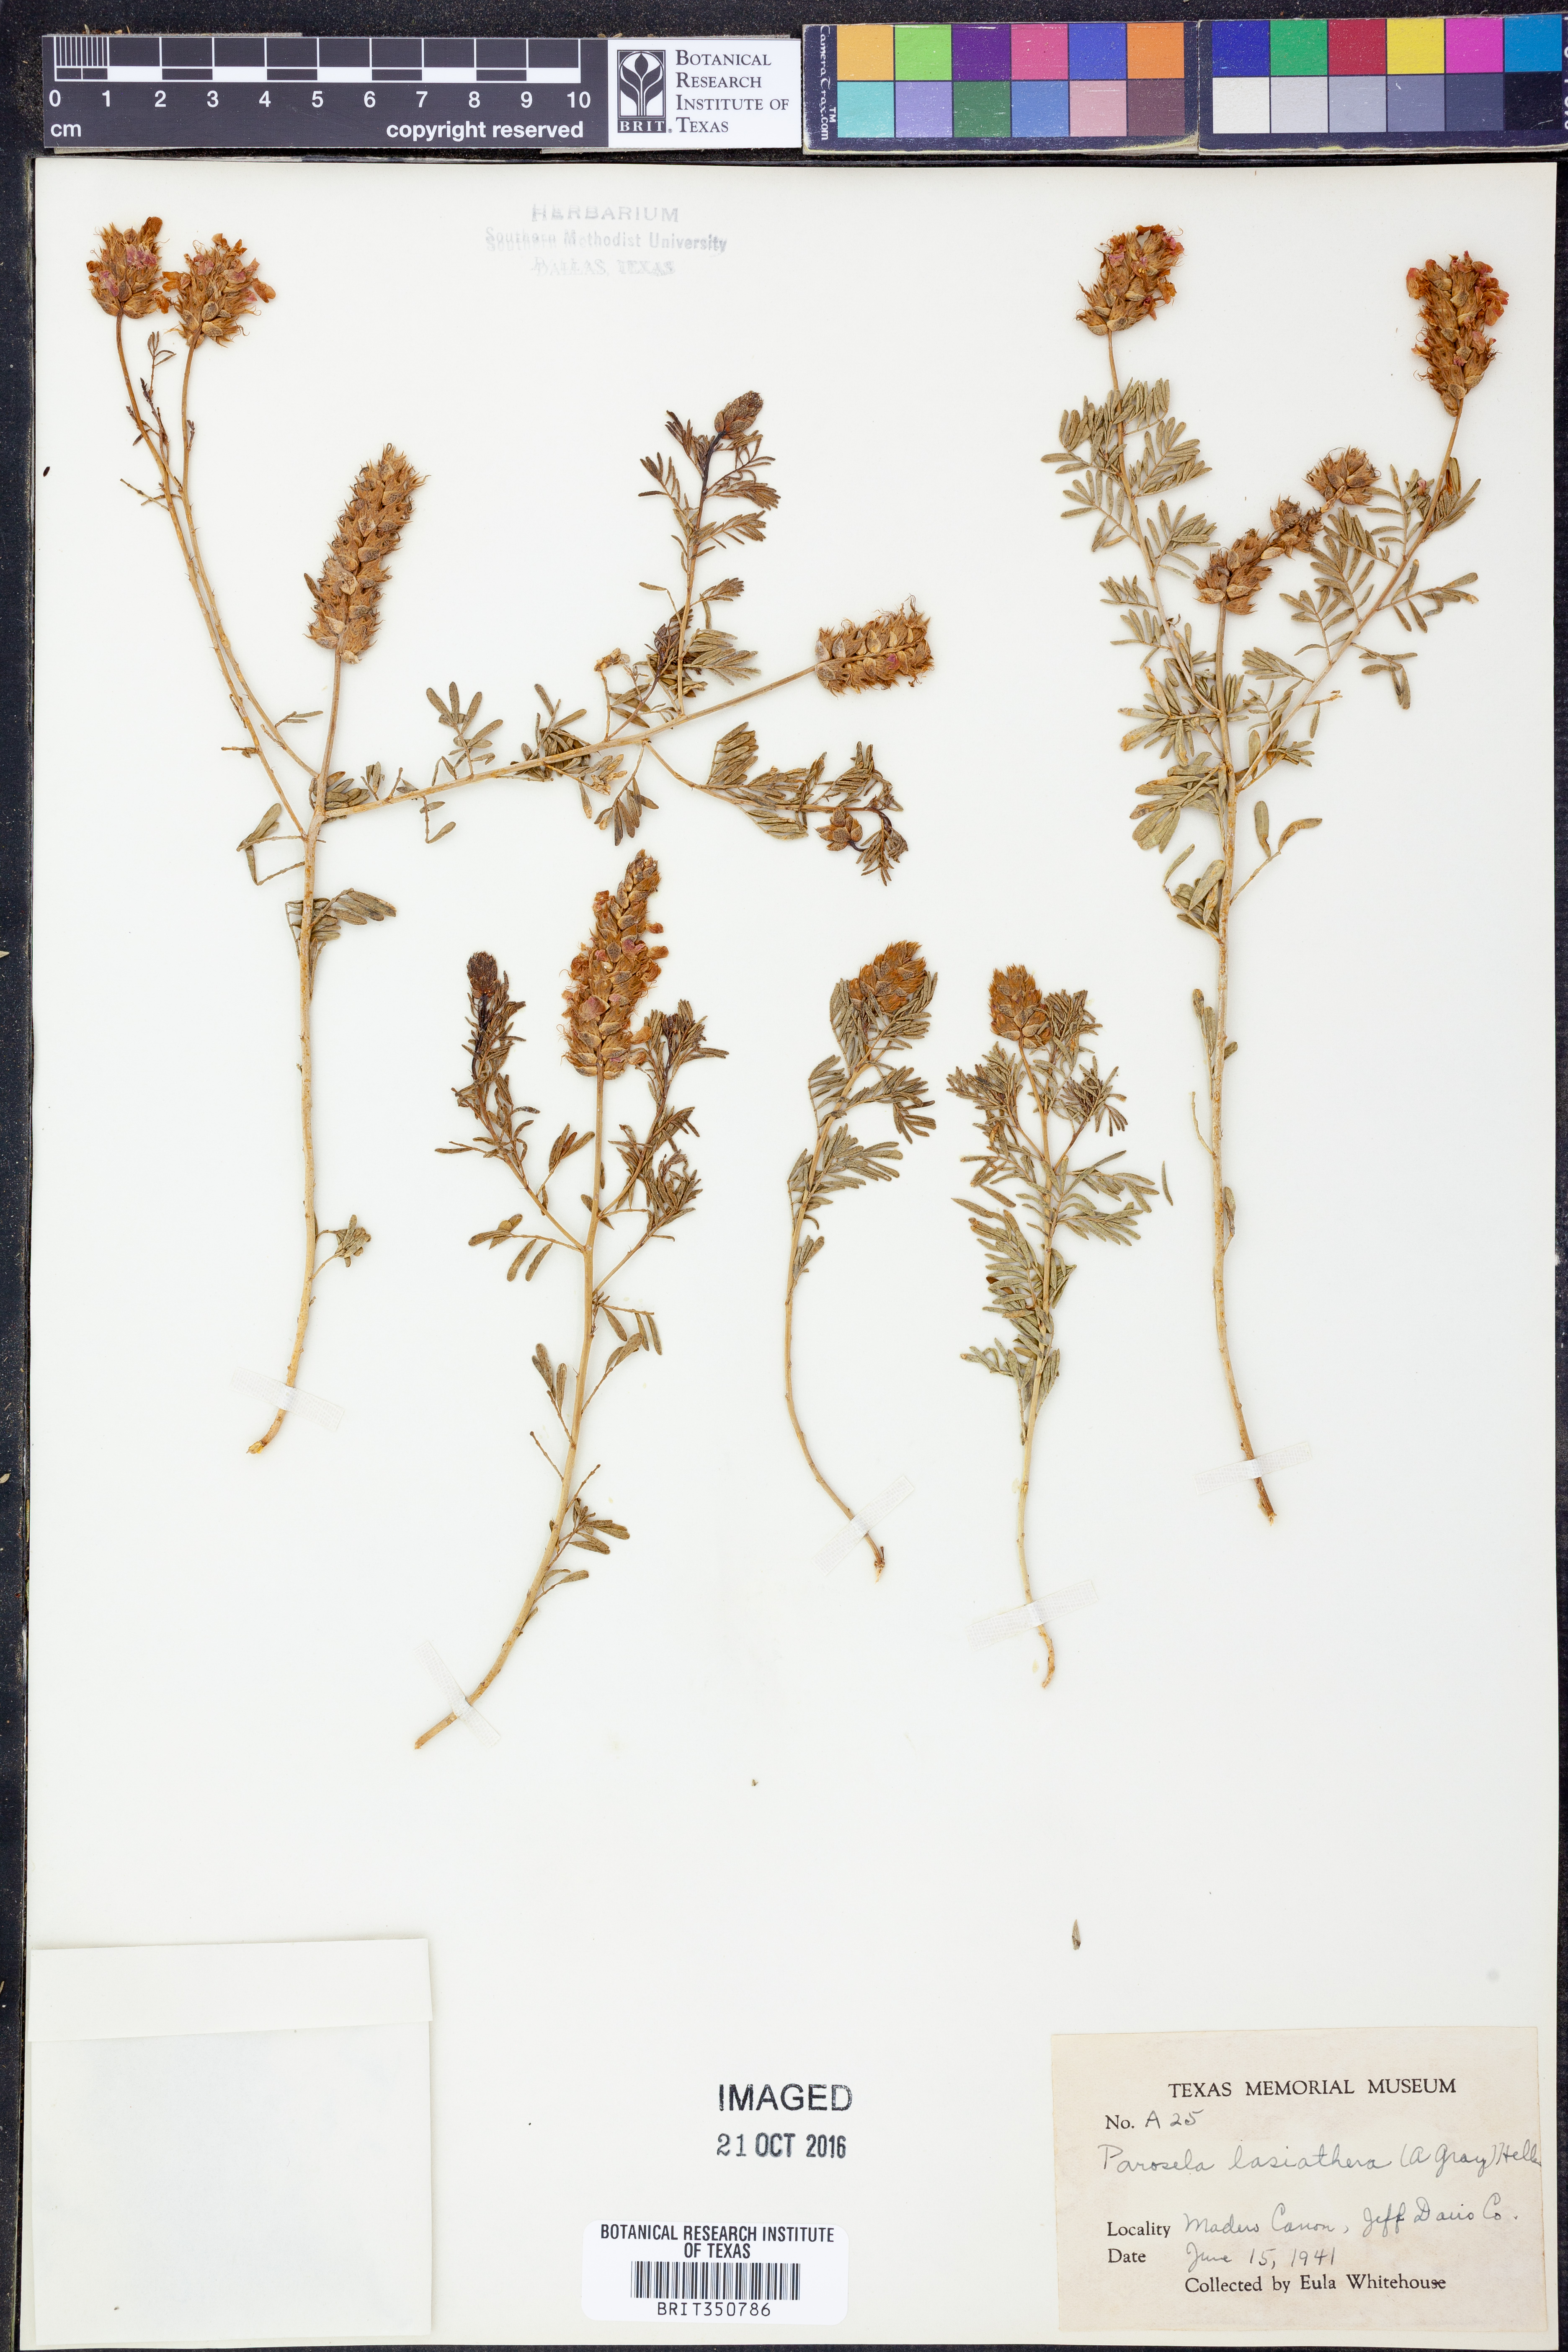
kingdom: Plantae
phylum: Tracheophyta
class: Magnoliopsida
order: Fabales
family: Fabaceae
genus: Dalea
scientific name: Dalea lasiathera
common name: Purple prairie-clover
